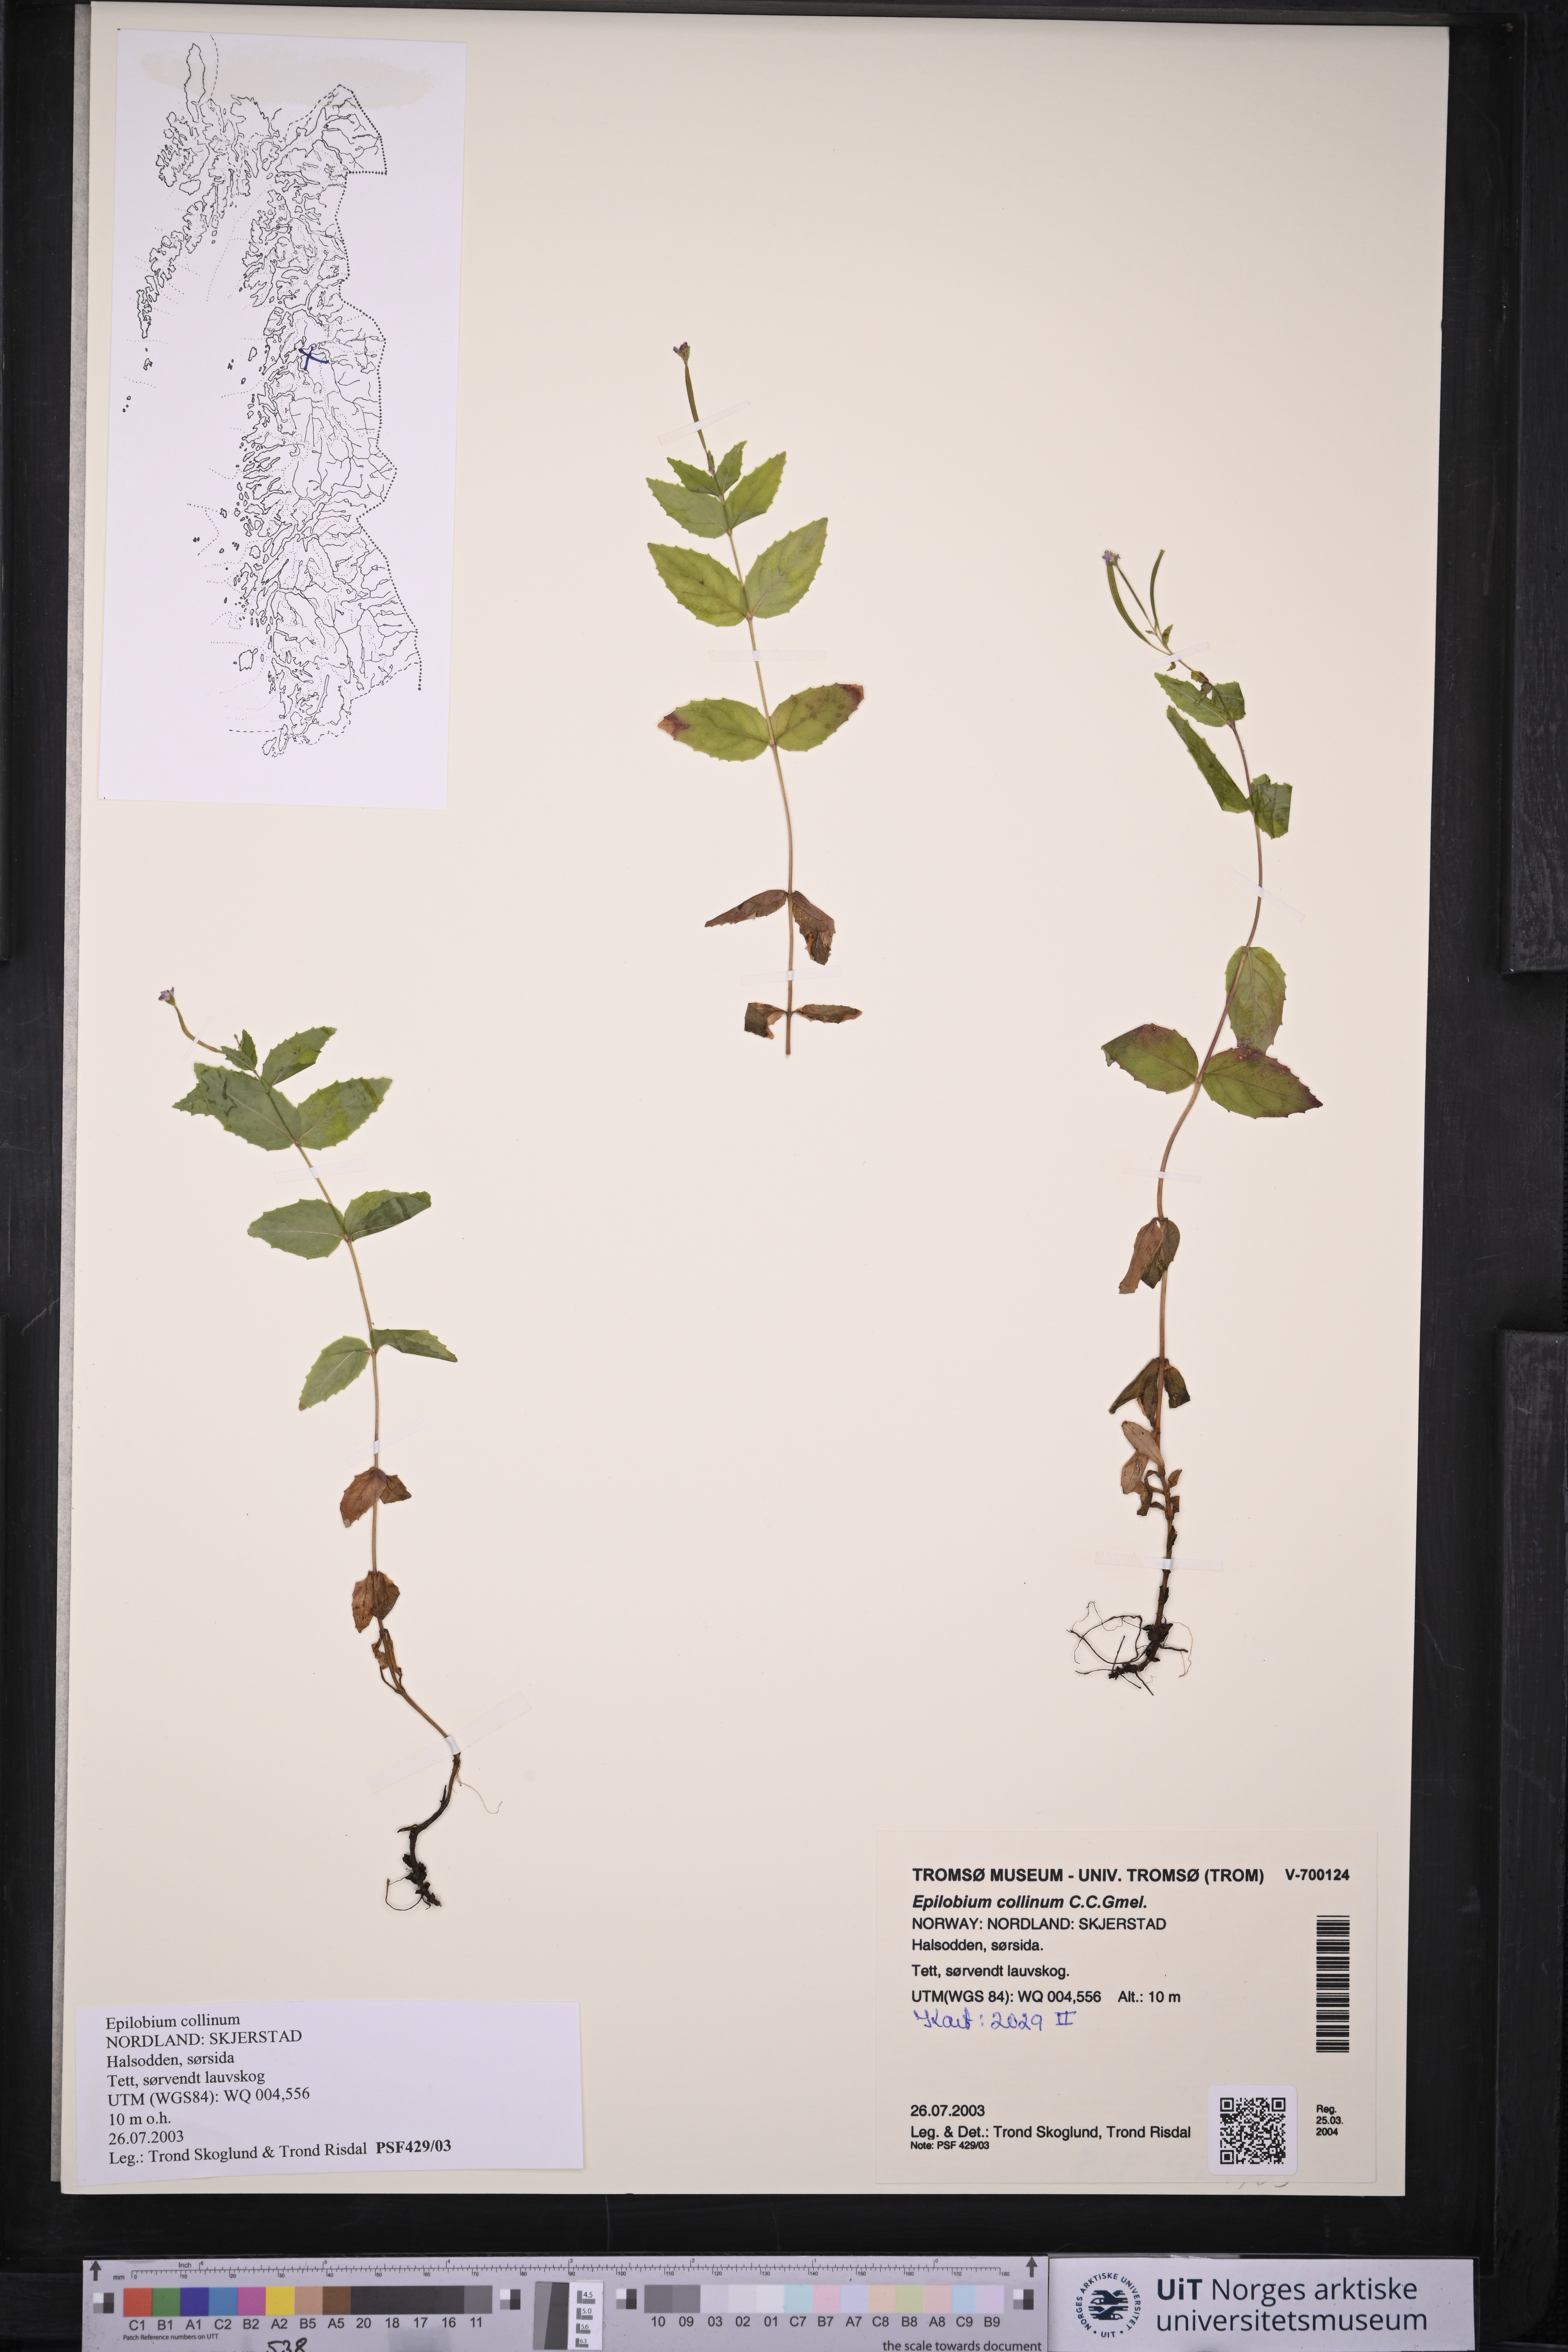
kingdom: Plantae
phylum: Tracheophyta
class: Magnoliopsida
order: Myrtales
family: Onagraceae
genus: Epilobium
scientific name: Epilobium collinum
